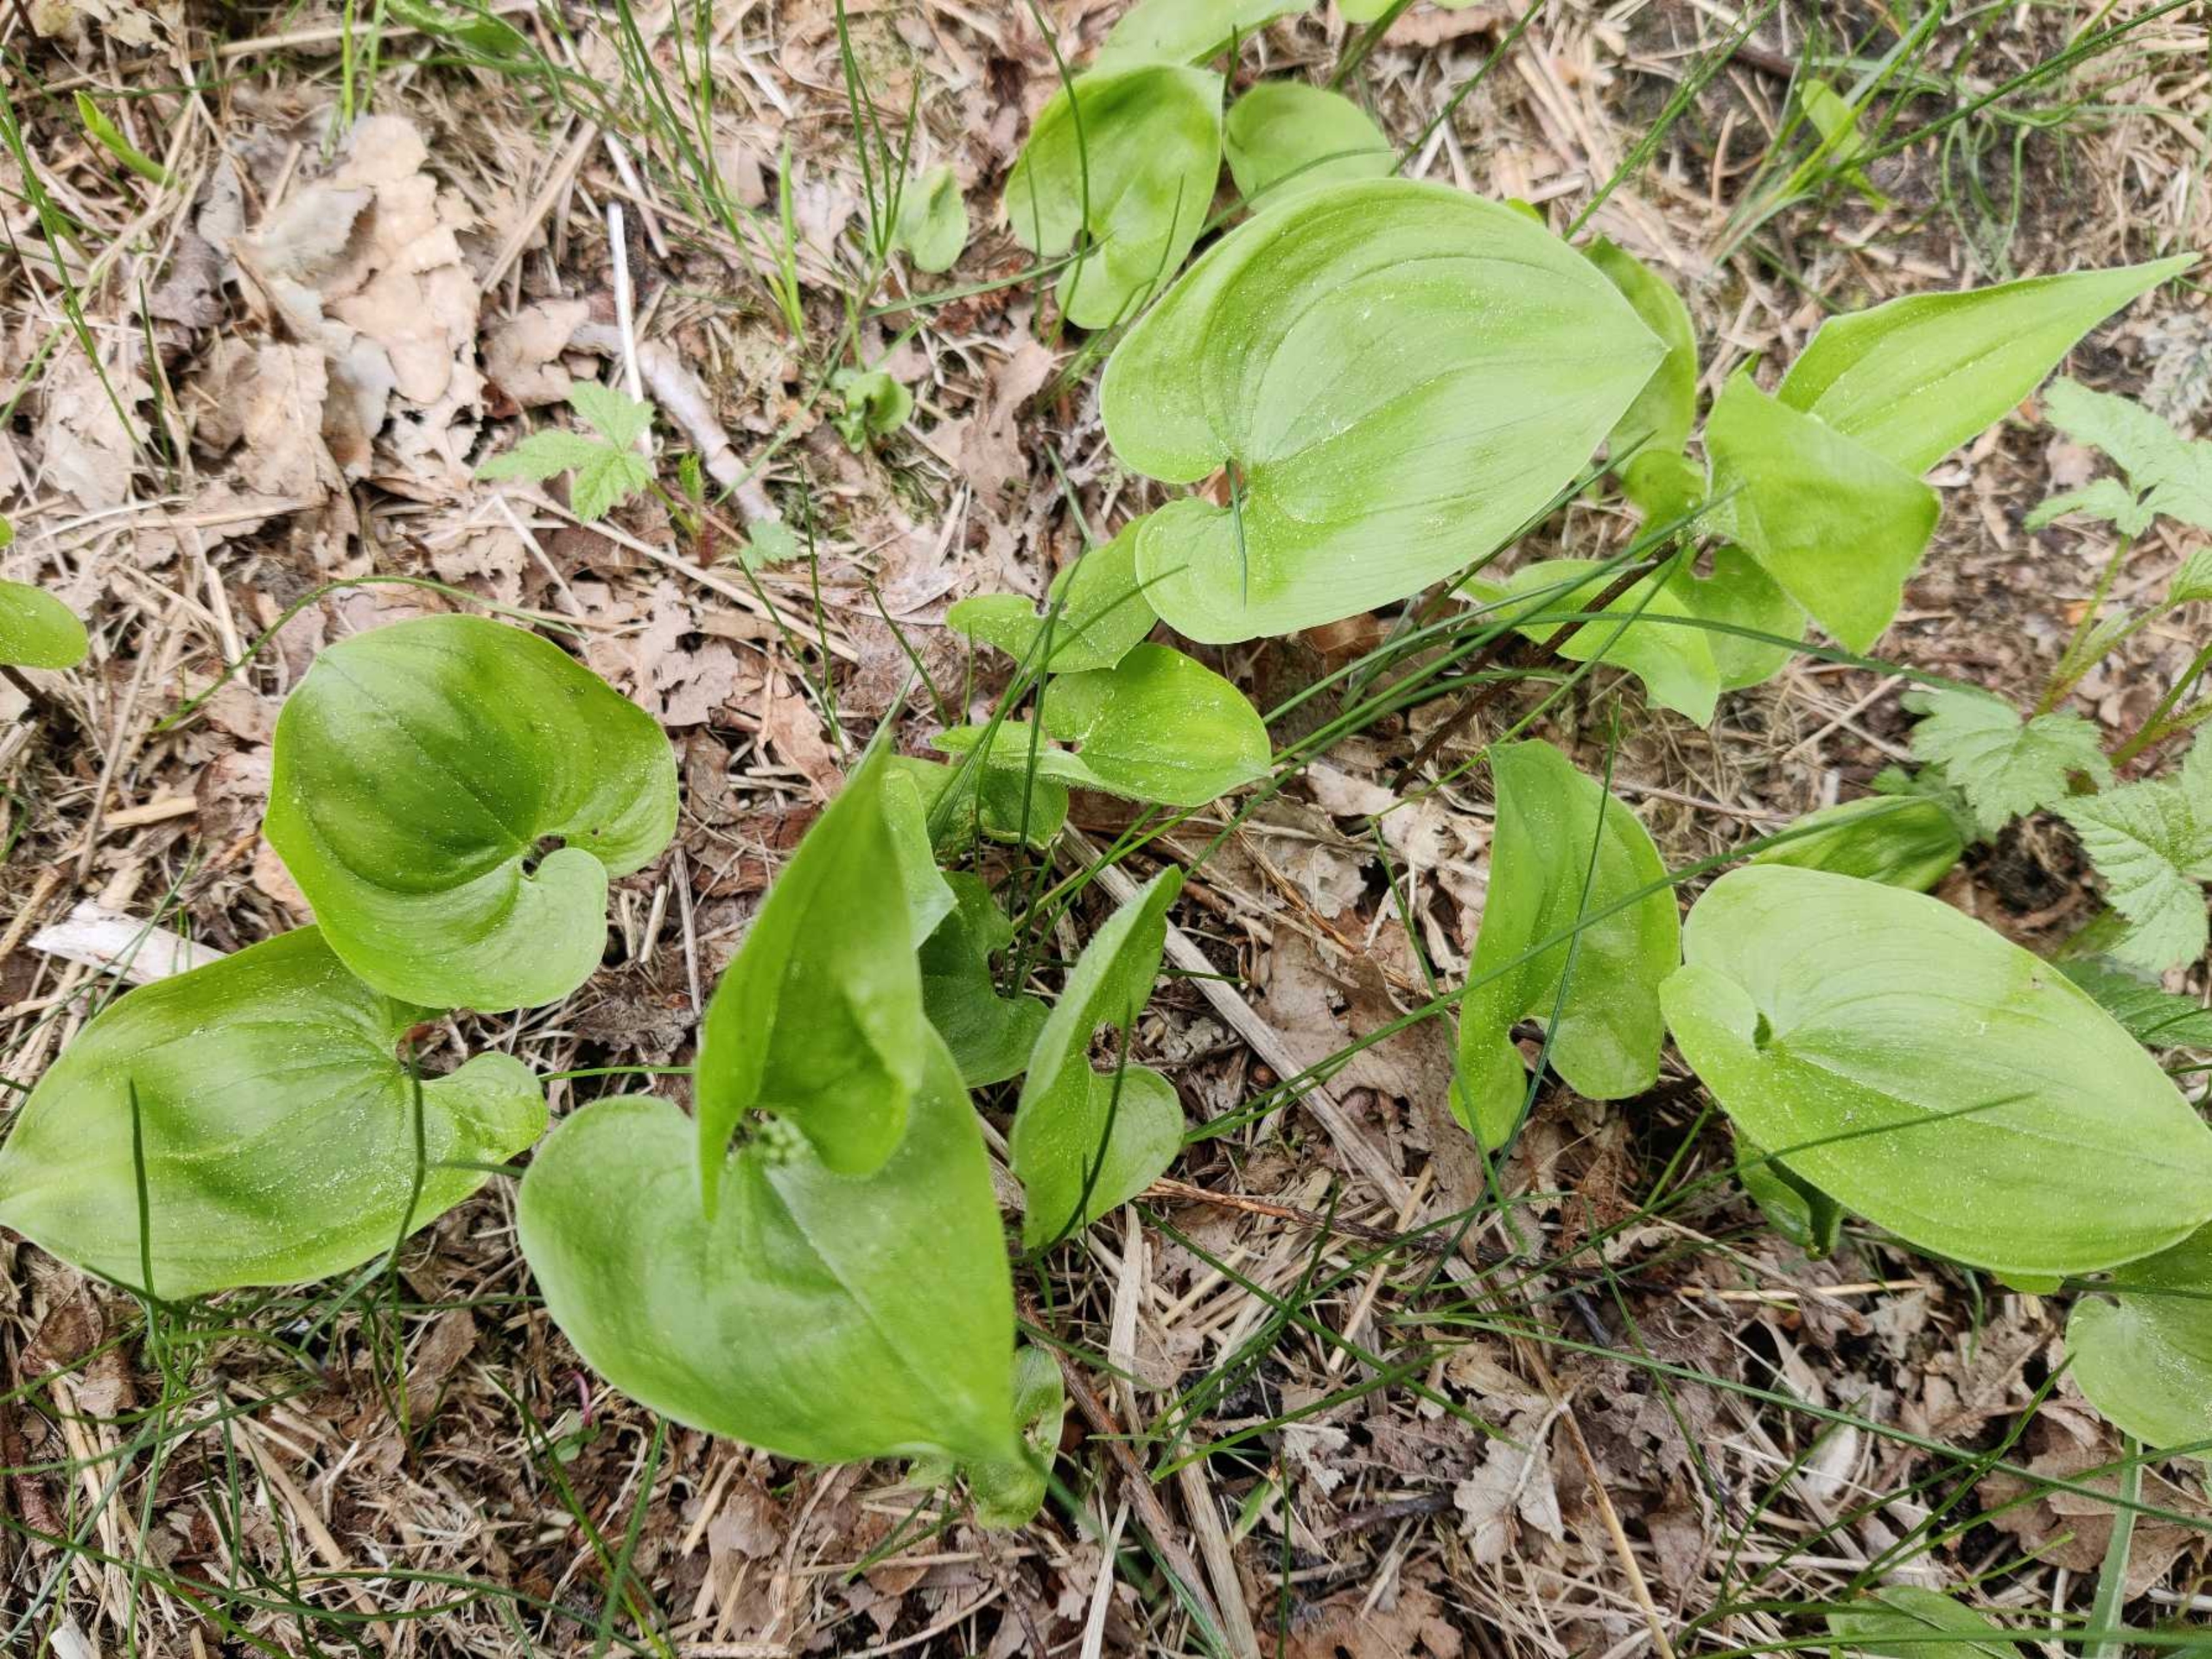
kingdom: Plantae
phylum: Tracheophyta
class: Liliopsida
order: Asparagales
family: Asparagaceae
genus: Maianthemum
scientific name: Maianthemum bifolium
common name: Majblomst
